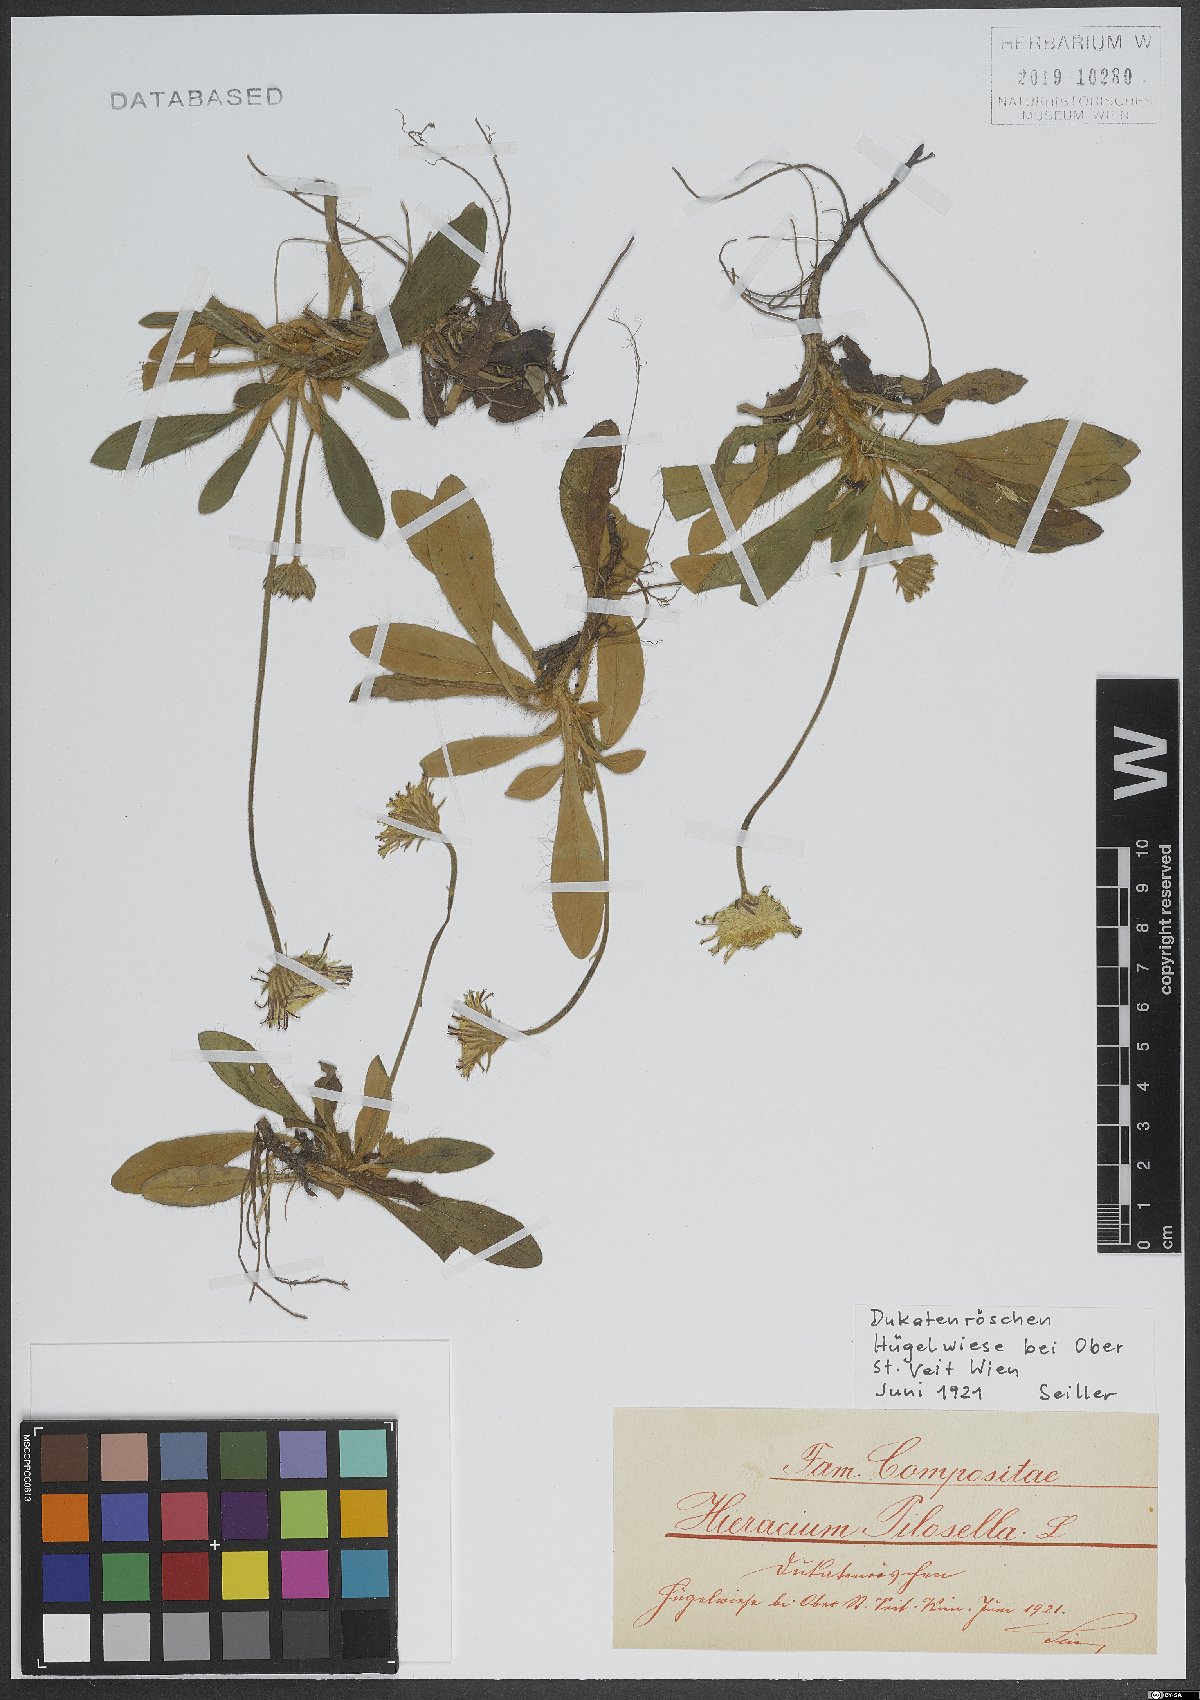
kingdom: Plantae
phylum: Tracheophyta
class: Magnoliopsida
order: Asterales
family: Asteraceae
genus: Pilosella
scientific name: Pilosella officinarum
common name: Mouse-ear hawkweed
